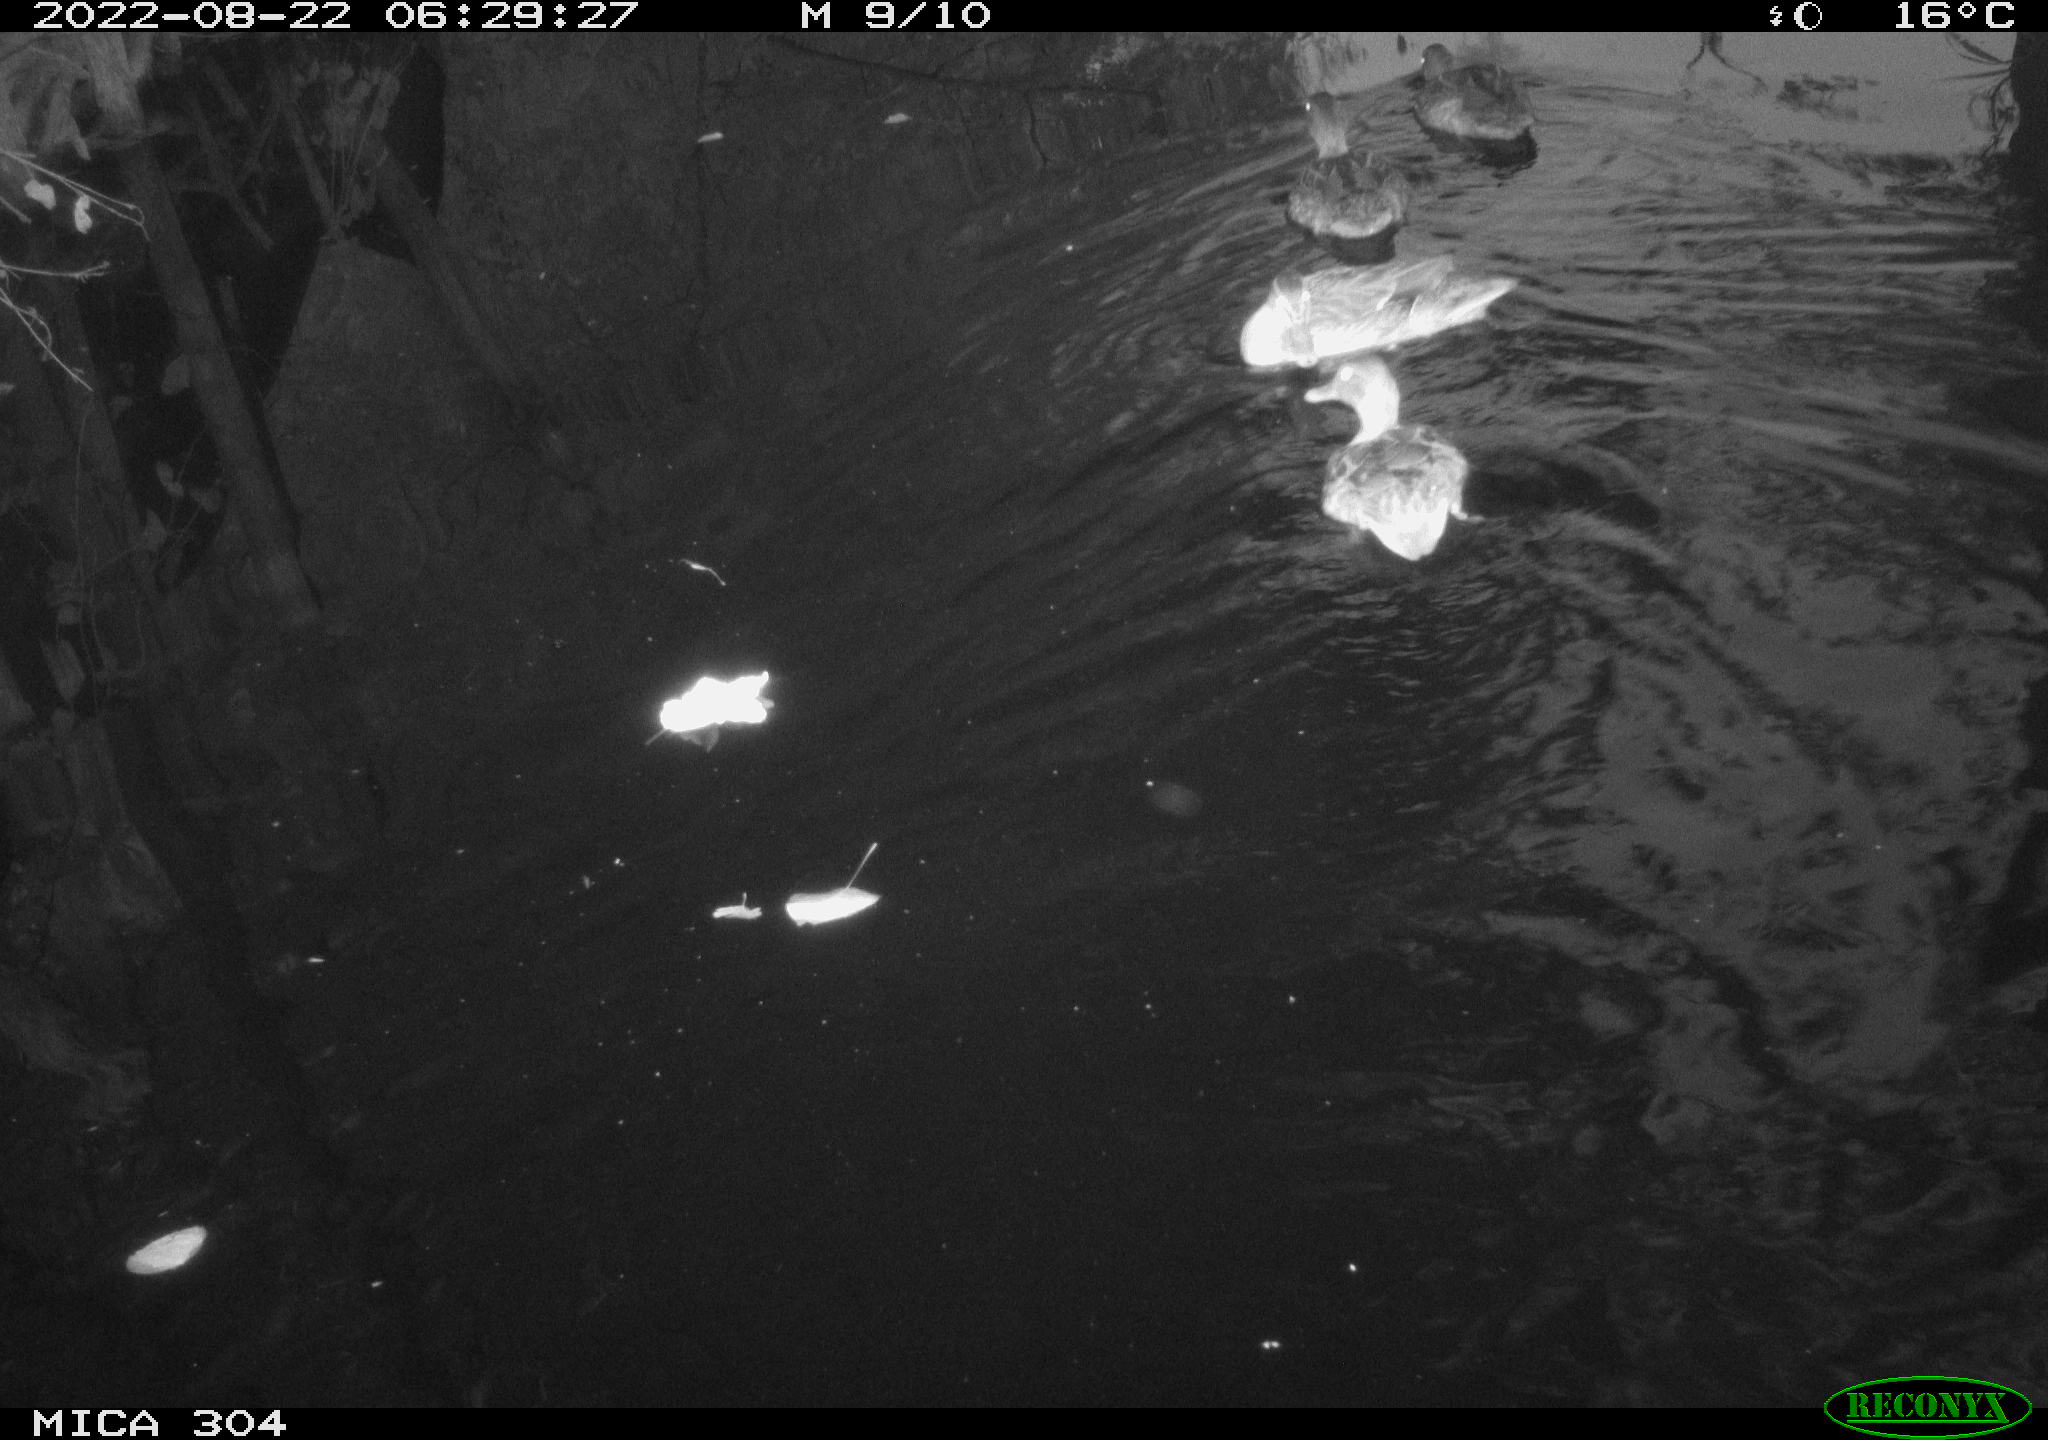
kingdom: Animalia
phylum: Chordata
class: Aves
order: Pelecaniformes
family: Ardeidae
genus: Ardea
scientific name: Ardea
